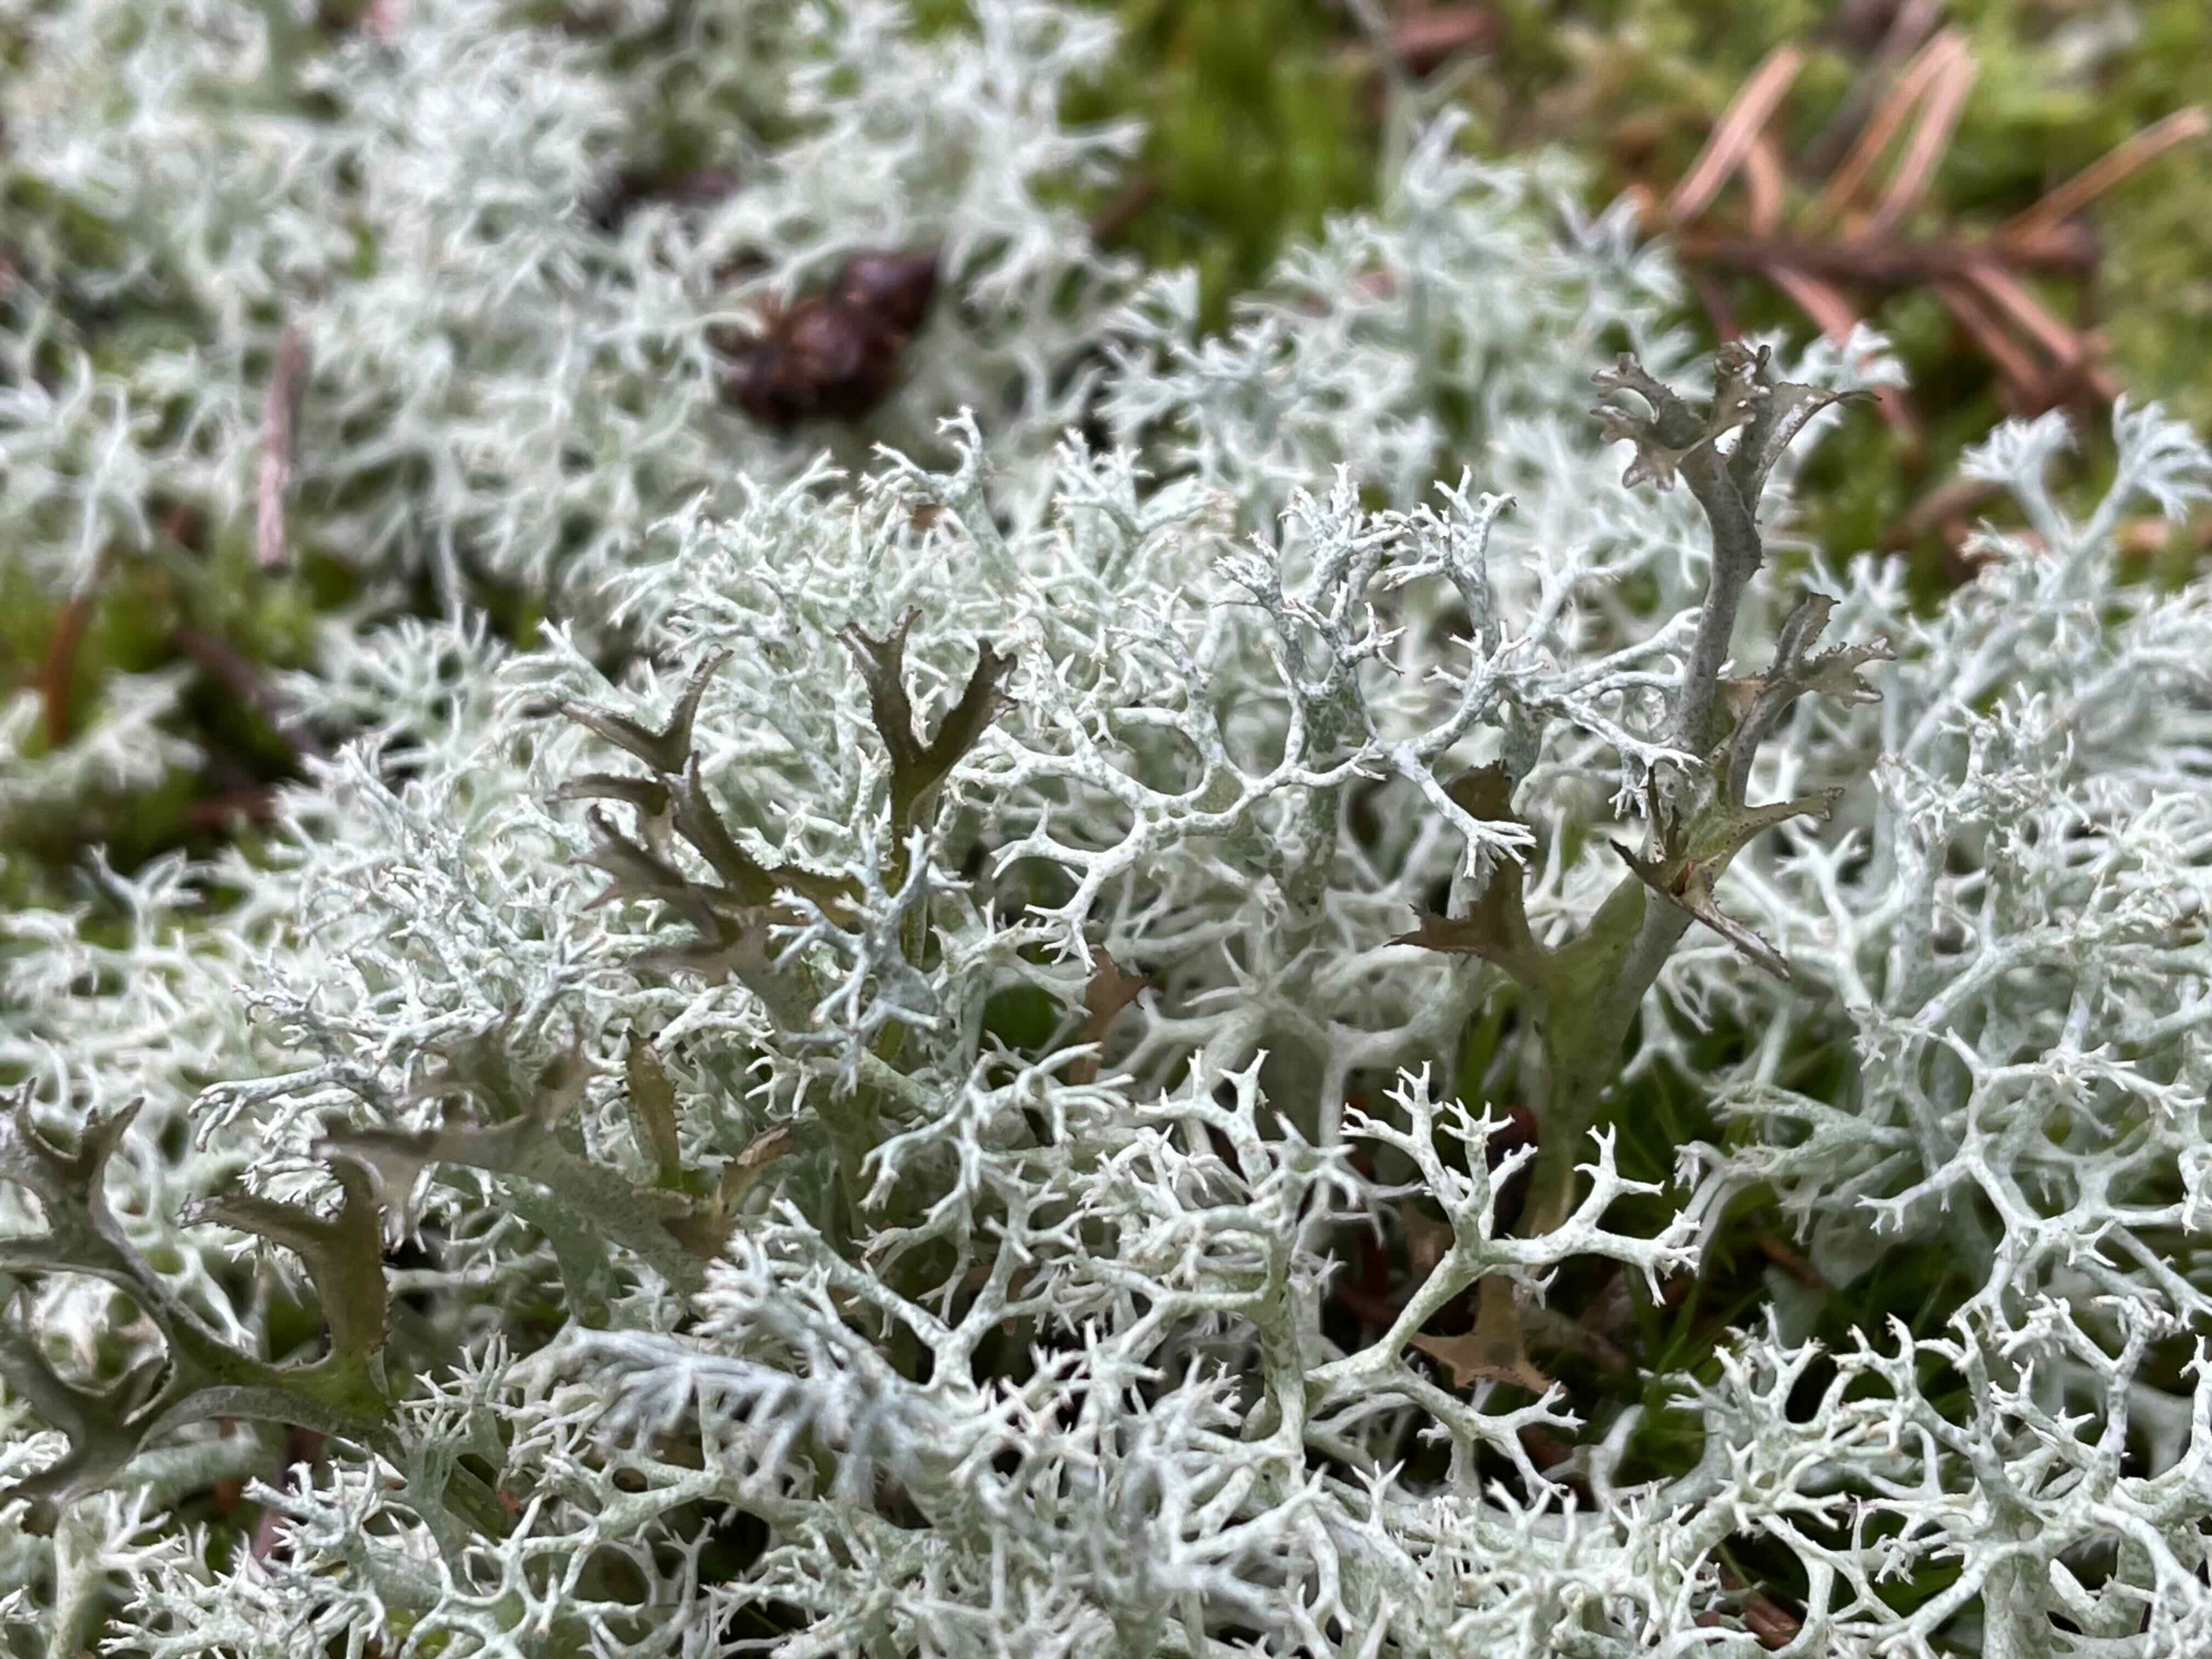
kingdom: Fungi
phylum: Ascomycota
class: Lecanoromycetes
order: Lecanorales
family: Parmeliaceae
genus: Cetraria
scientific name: Cetraria islandica
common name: islandsk kruslav
